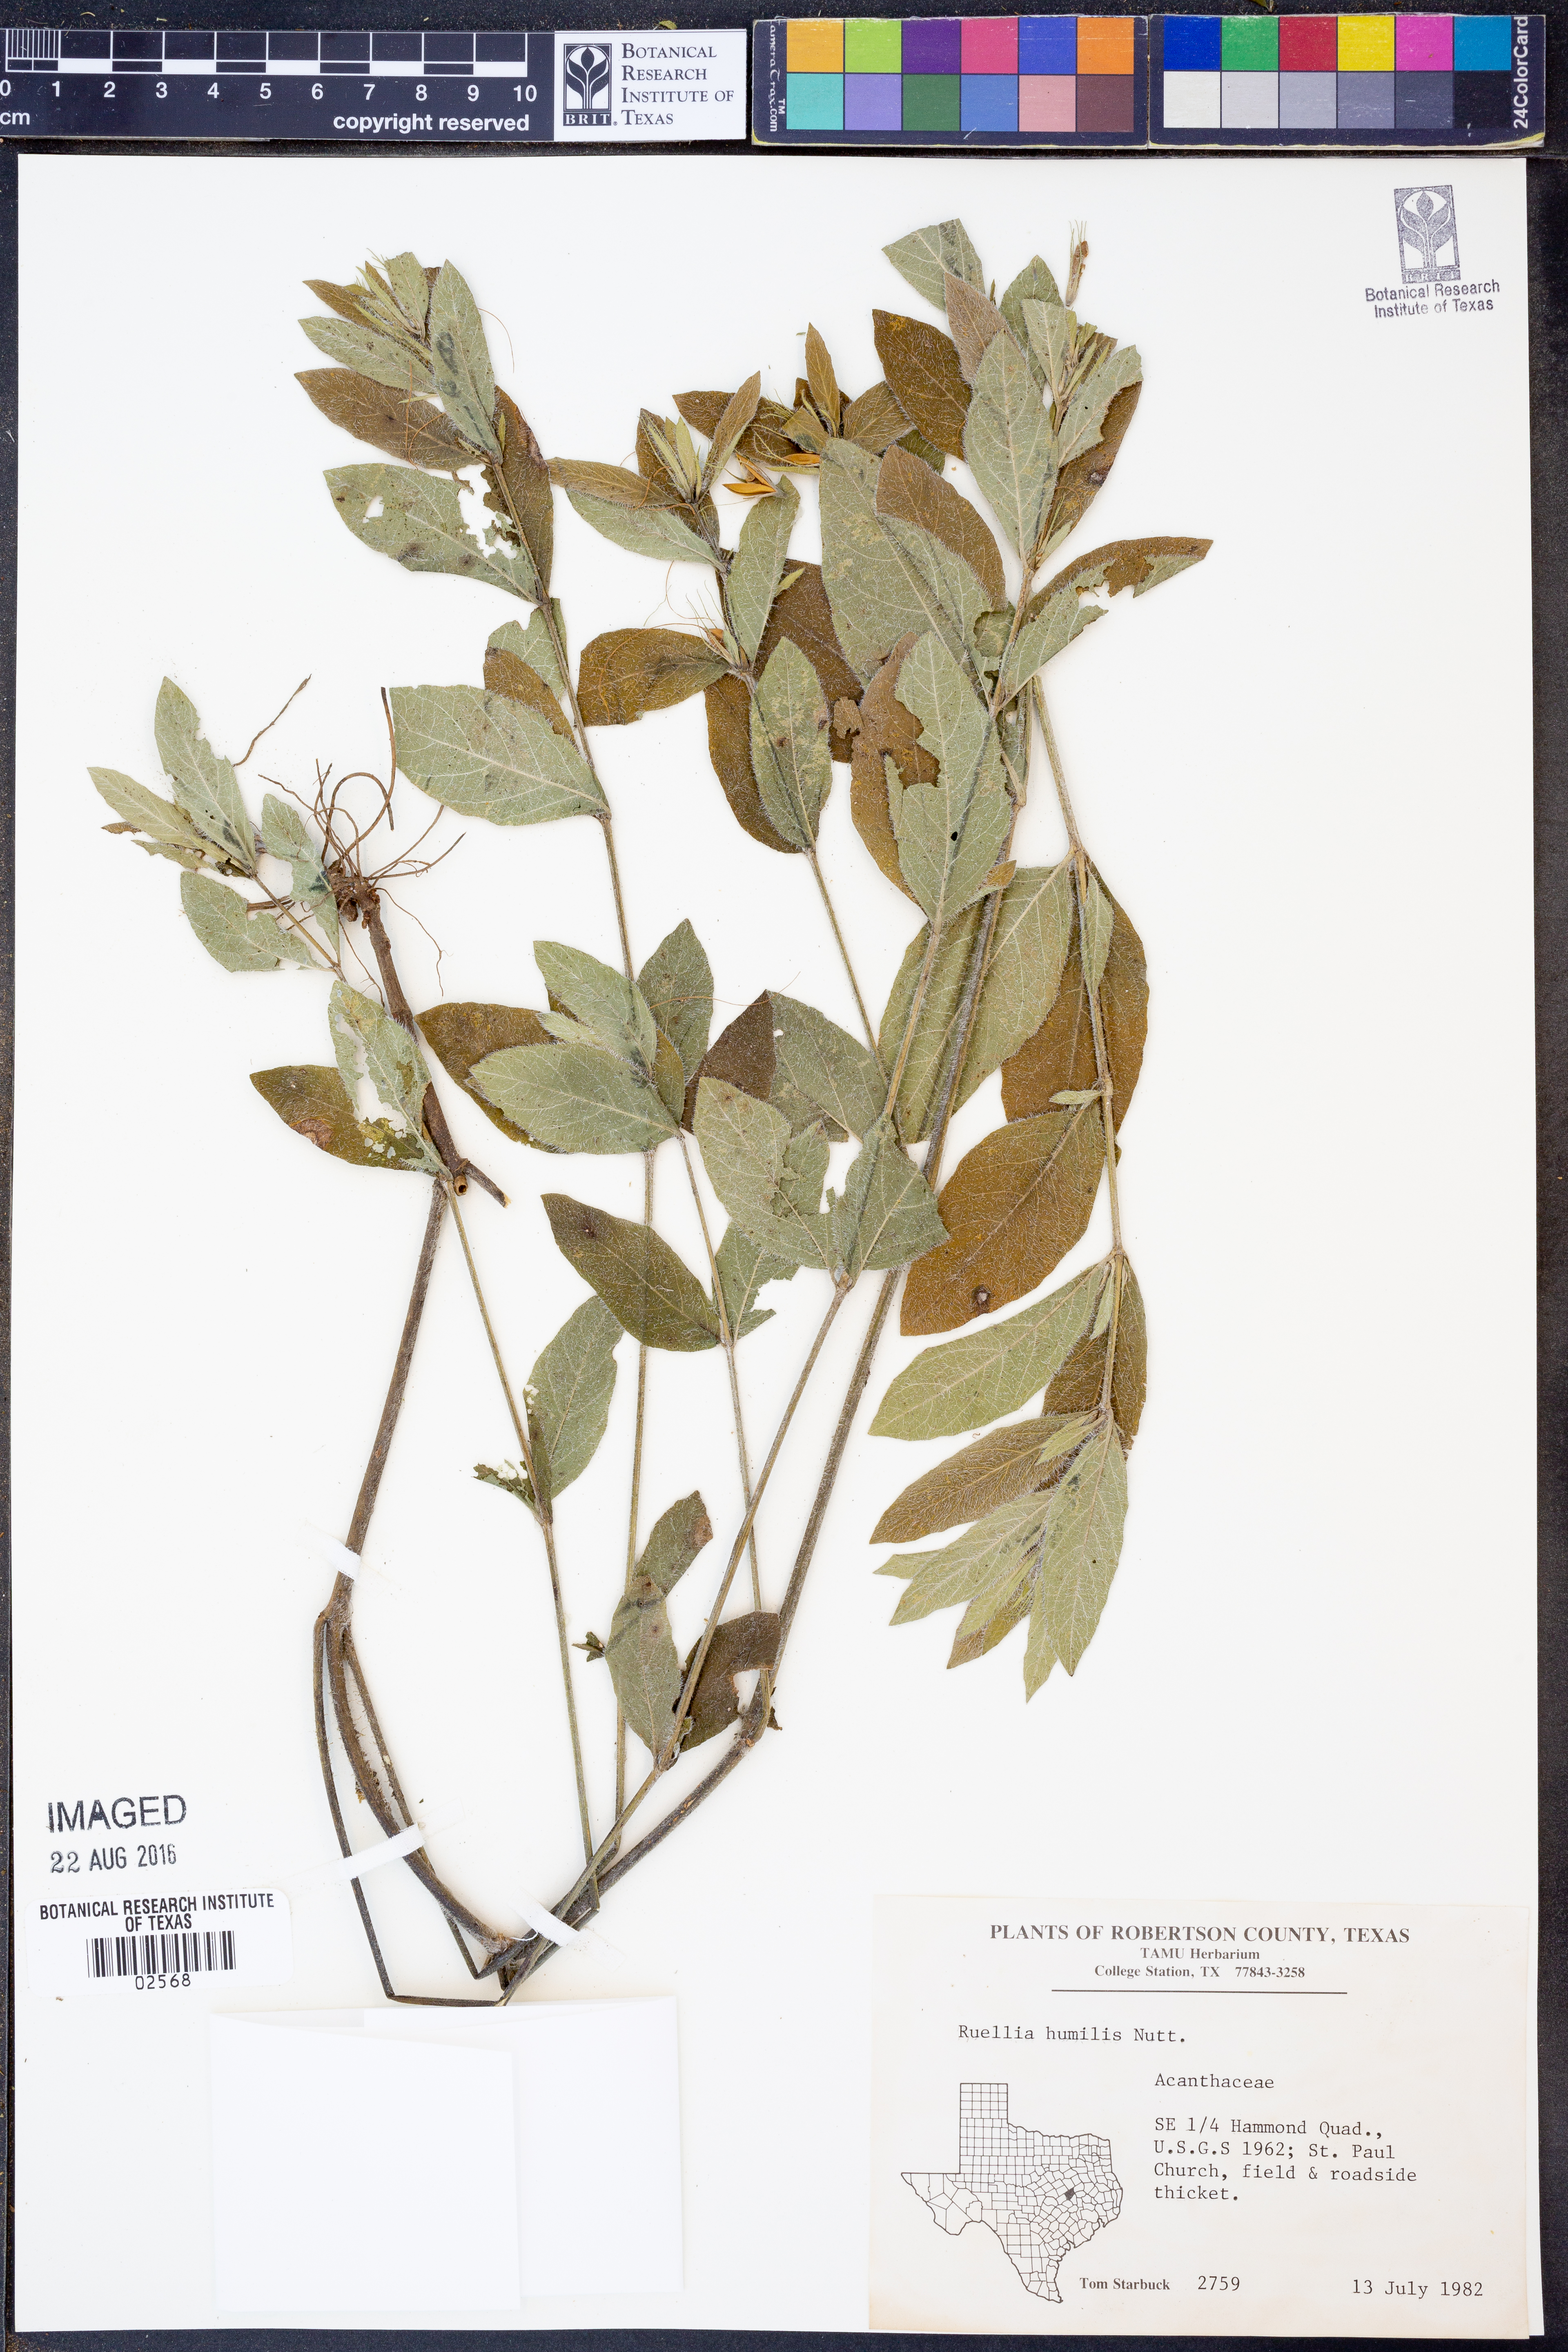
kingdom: Plantae
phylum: Tracheophyta
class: Magnoliopsida
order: Lamiales
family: Acanthaceae
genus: Ruellia
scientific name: Ruellia humilis
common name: Fringe-leaf ruellia
